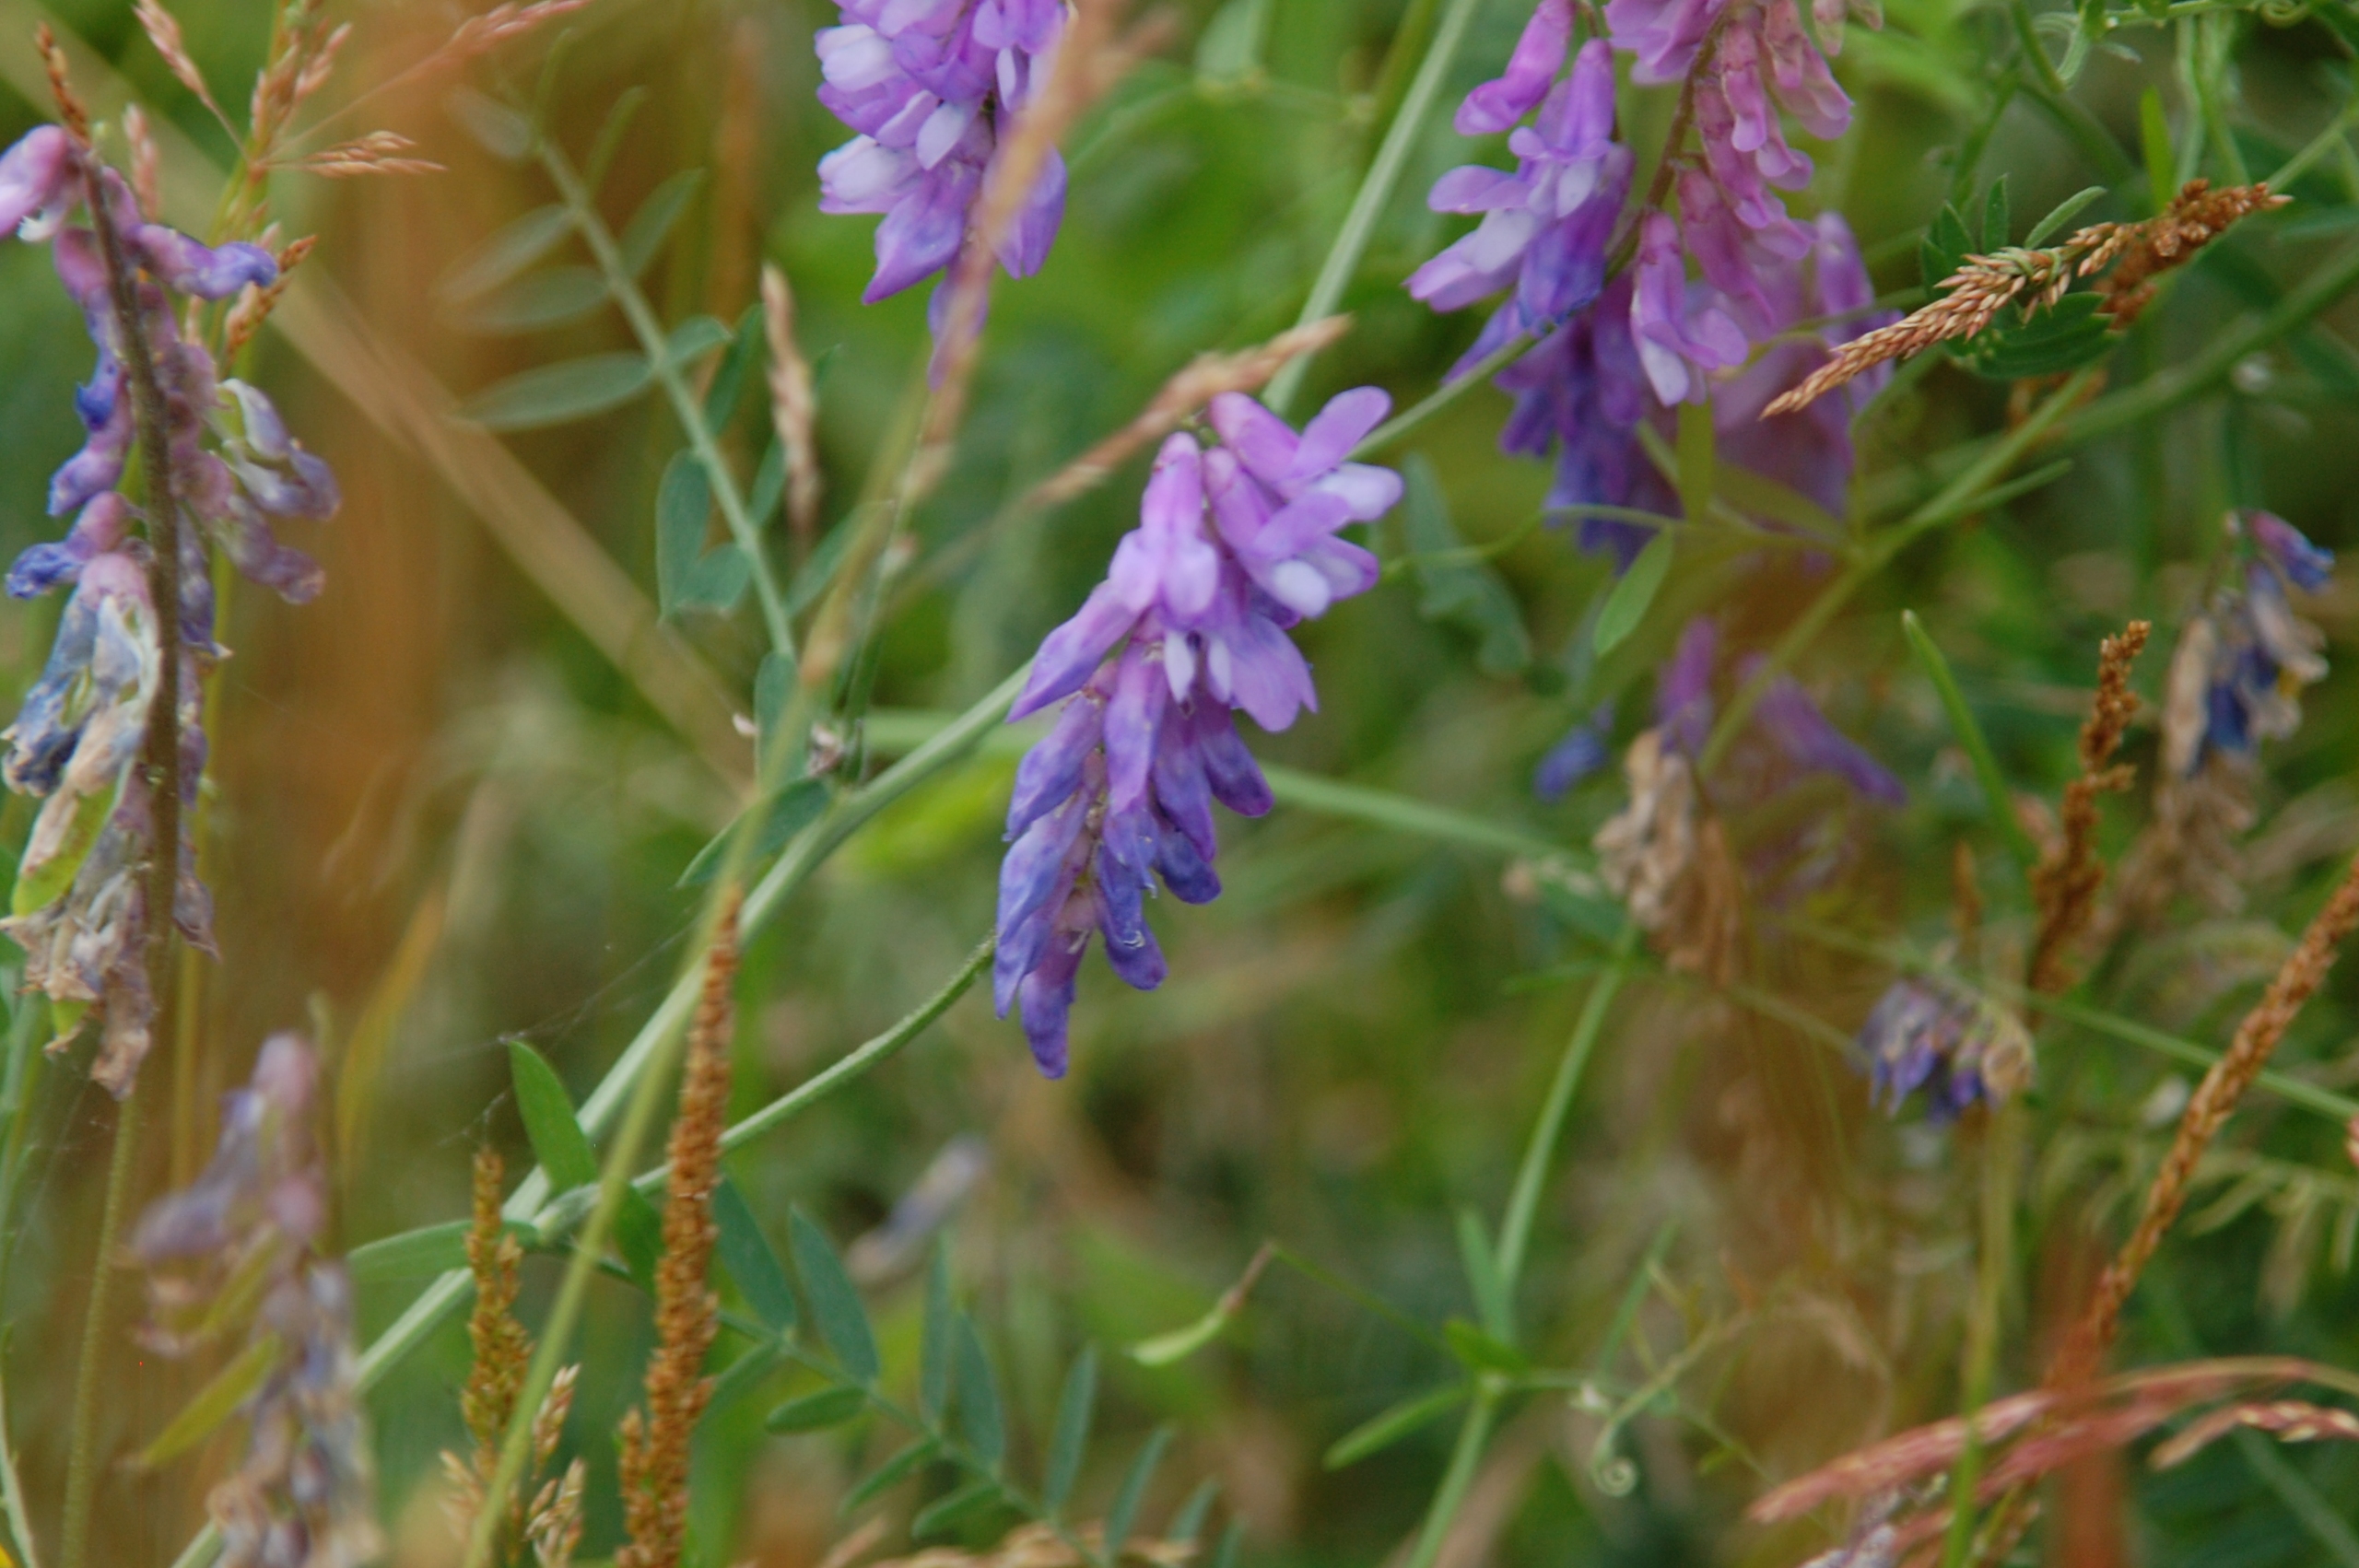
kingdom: Plantae
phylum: Tracheophyta
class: Magnoliopsida
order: Fabales
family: Fabaceae
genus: Vicia
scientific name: Vicia cracca
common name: Muse-vikke
